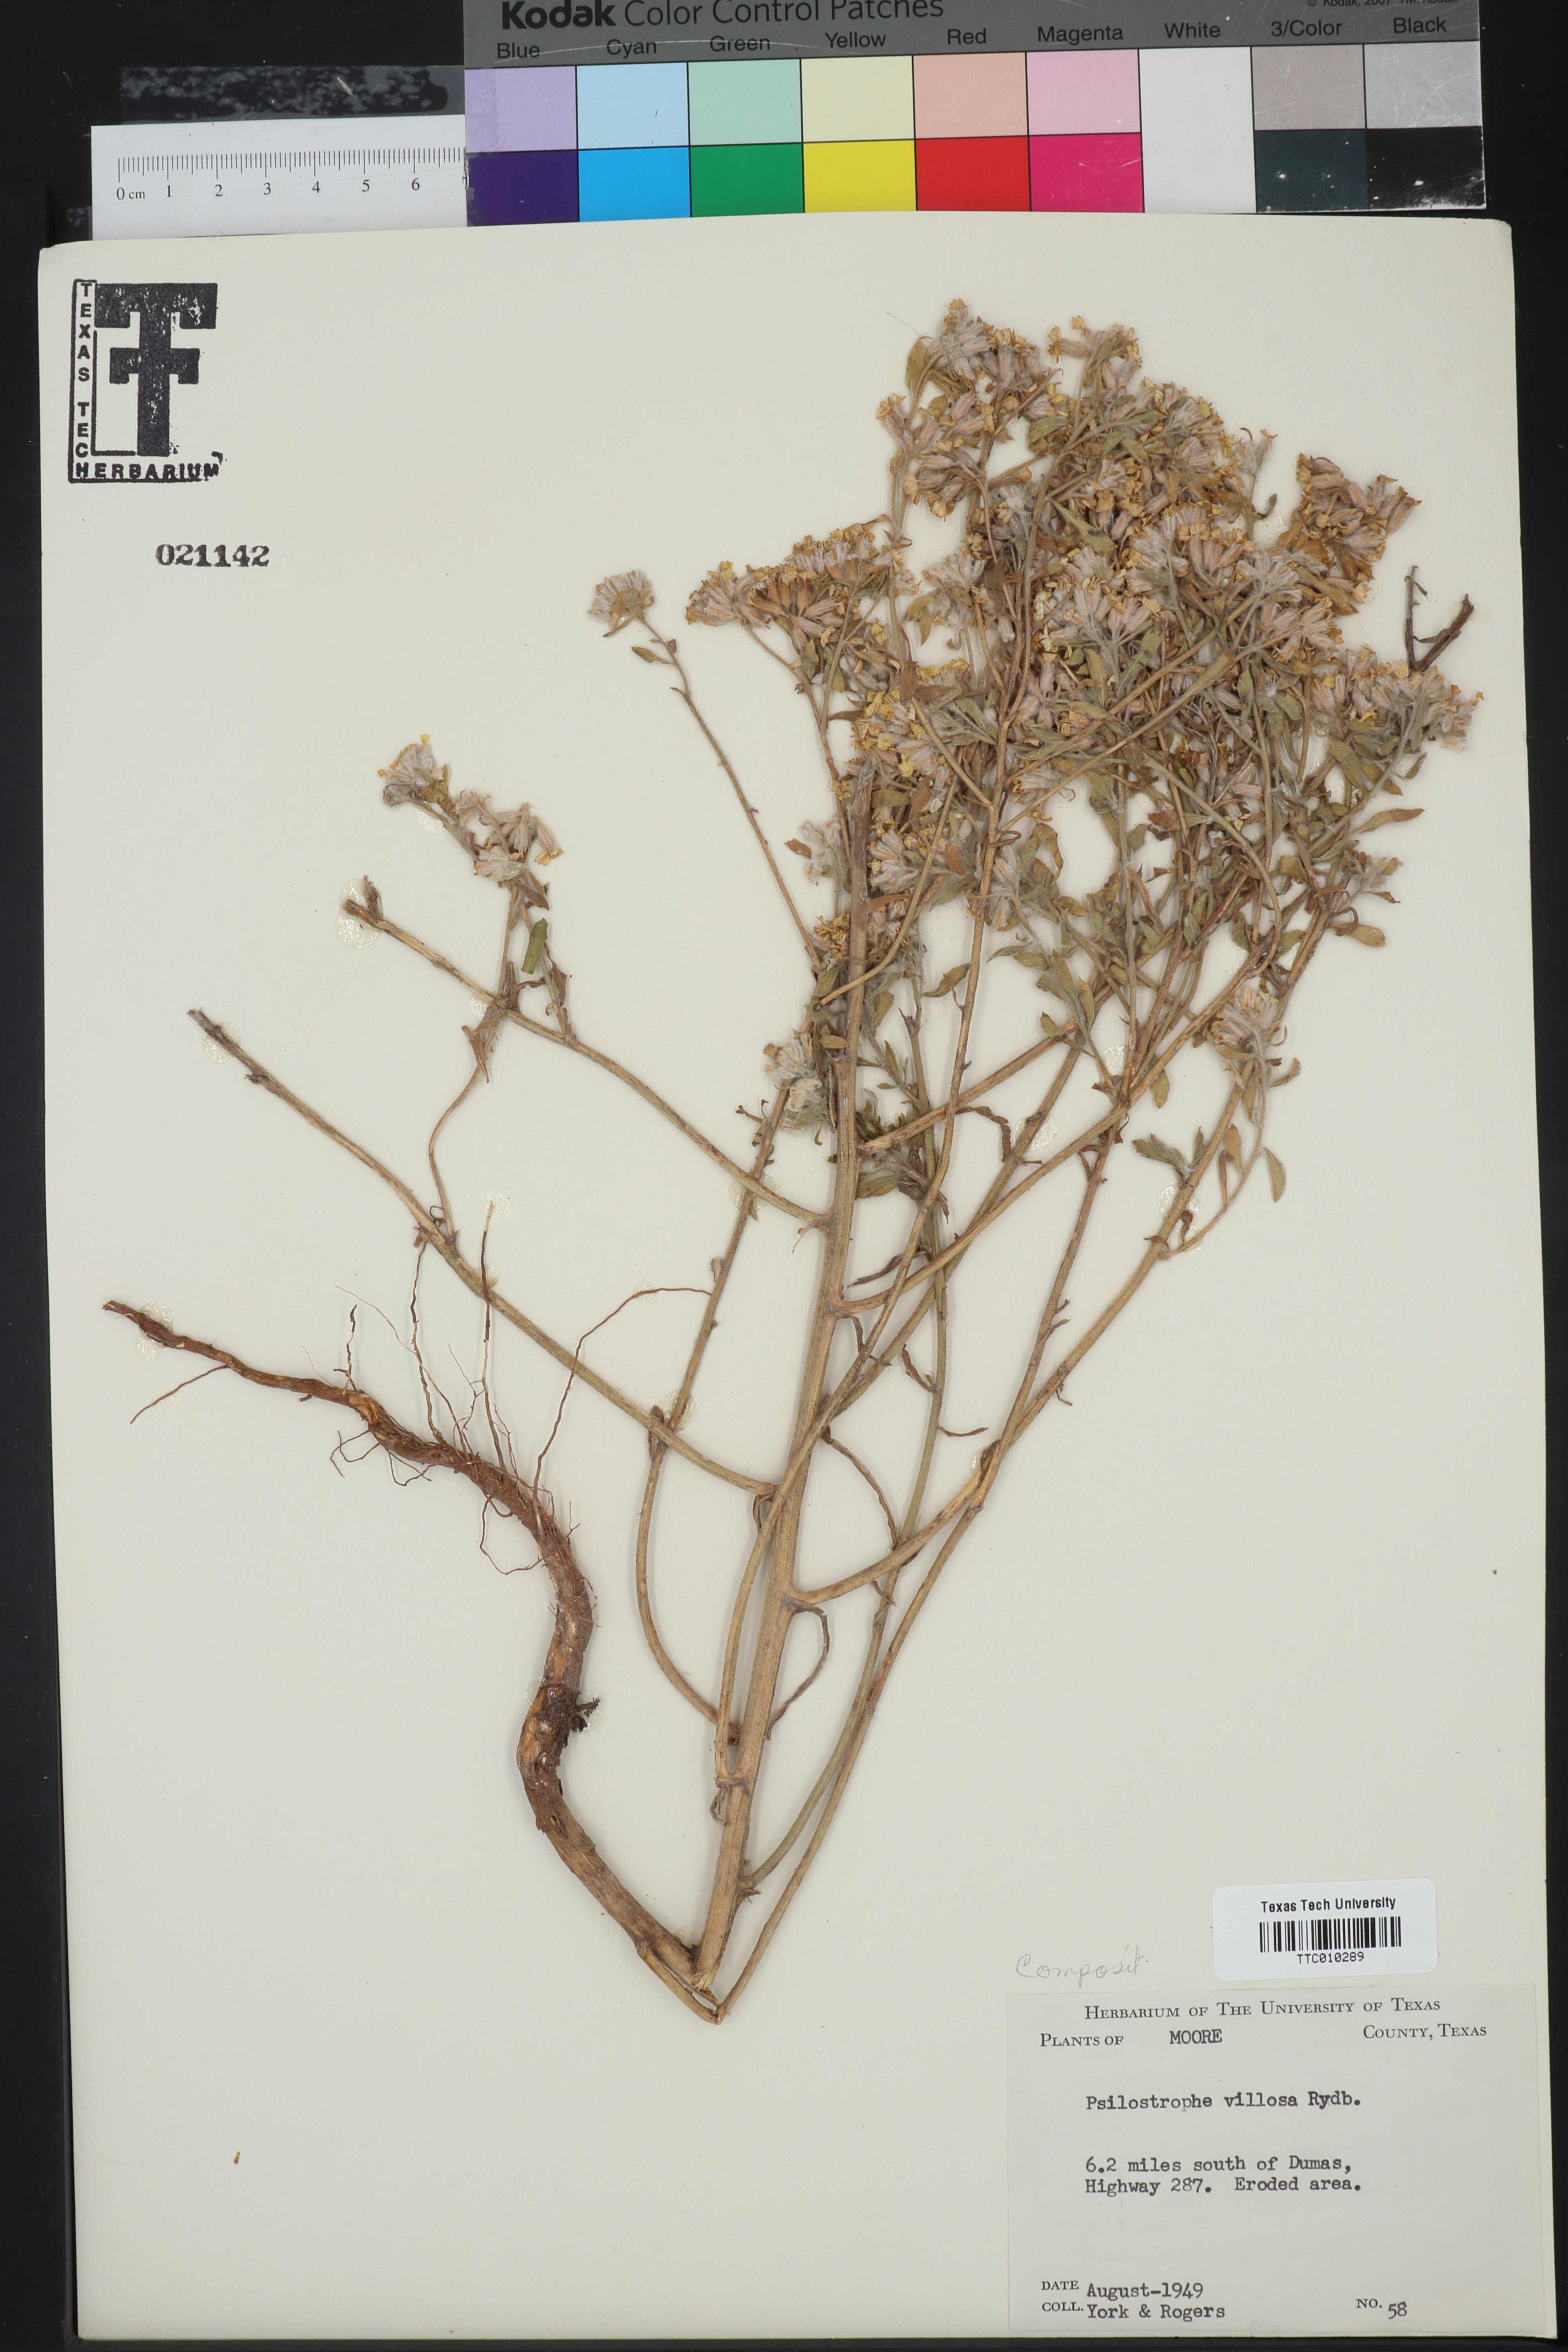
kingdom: Plantae
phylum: Tracheophyta
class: Magnoliopsida
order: Asterales
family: Asteraceae
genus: Psilostrophe
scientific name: Psilostrophe villosa
